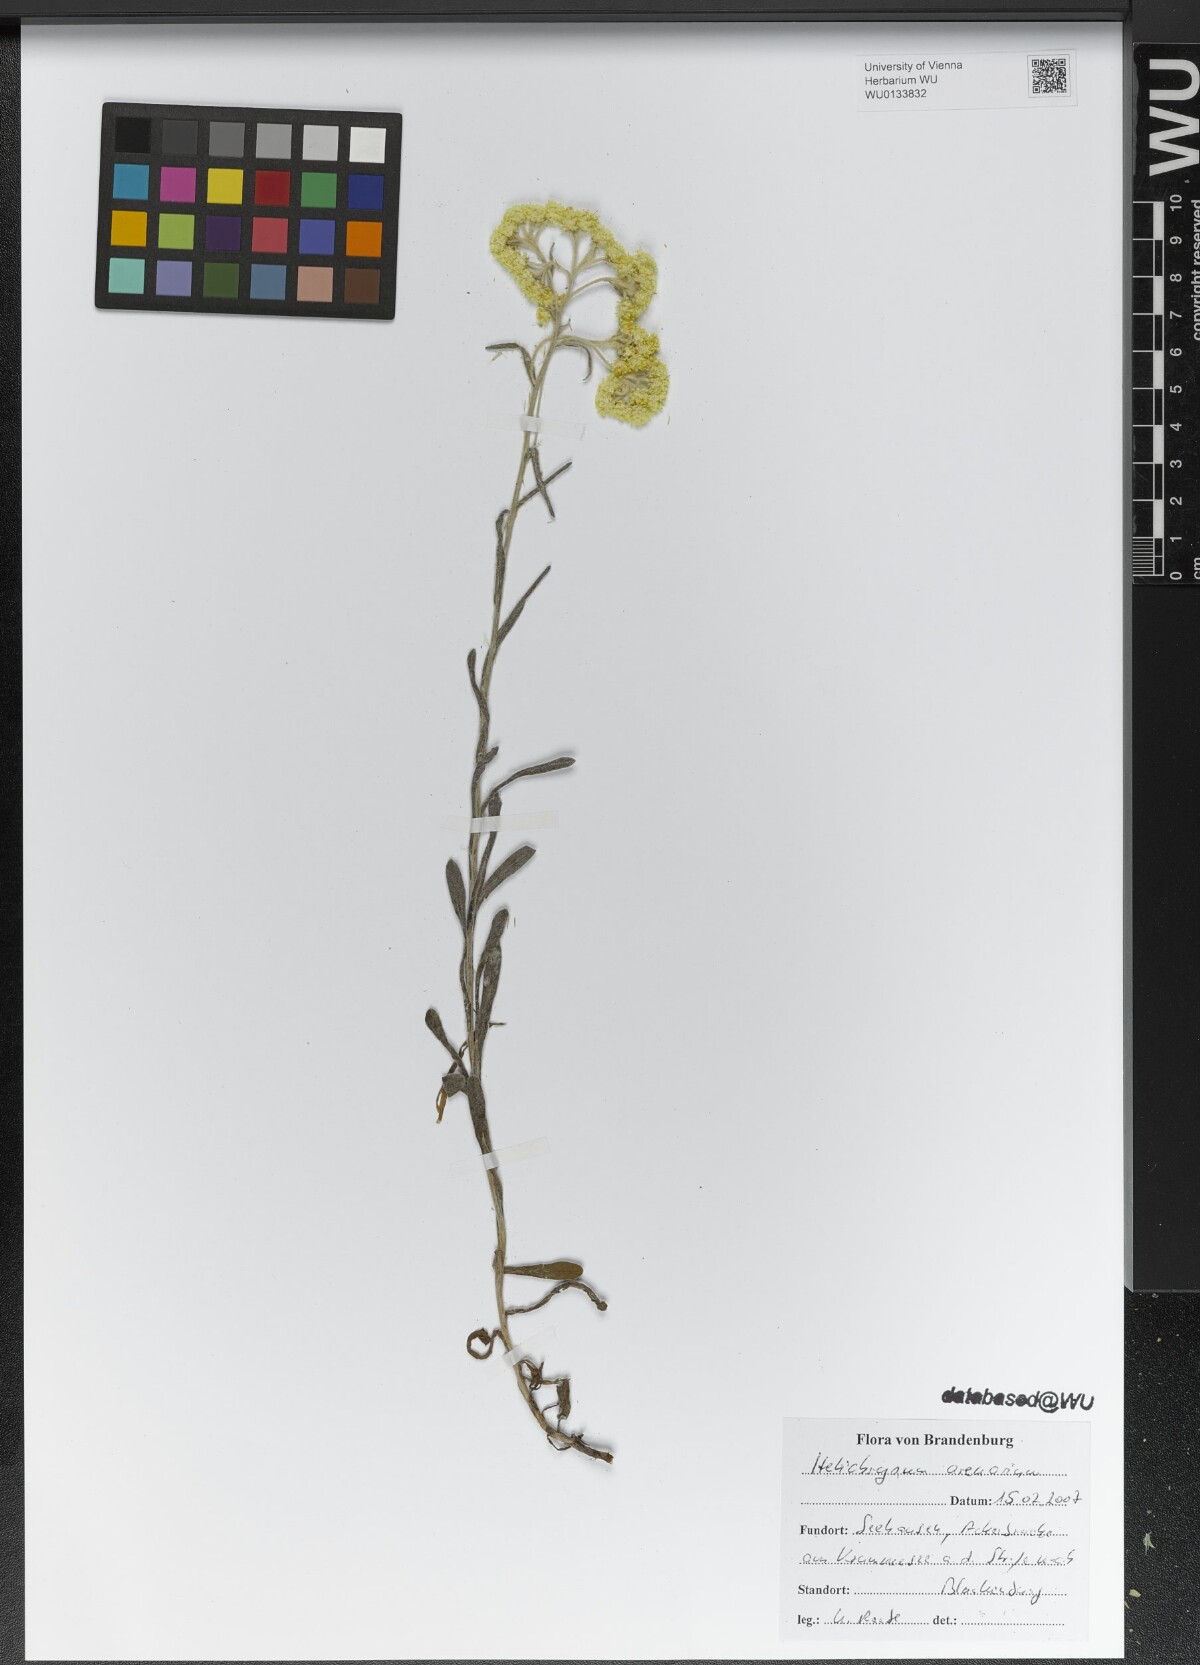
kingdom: Plantae
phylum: Tracheophyta
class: Magnoliopsida
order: Asterales
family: Asteraceae
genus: Helichrysum
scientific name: Helichrysum arenarium
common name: Strawflower
